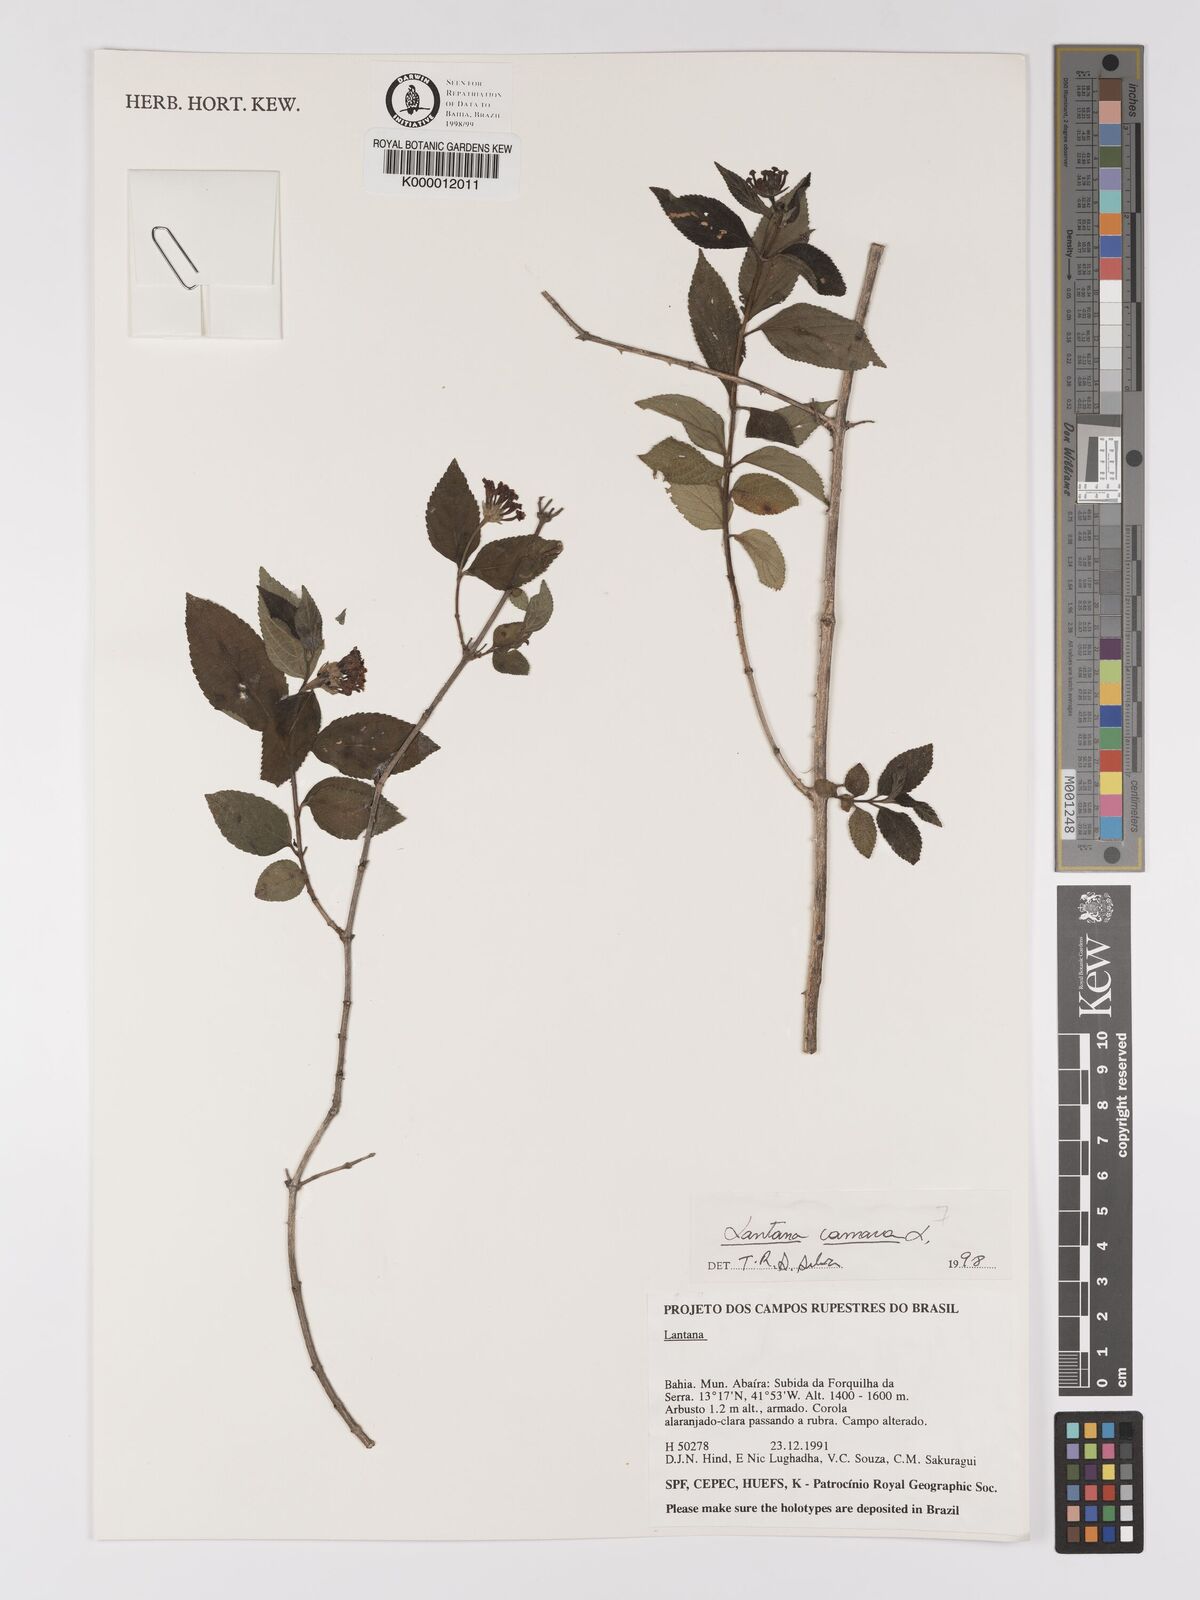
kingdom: Plantae
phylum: Tracheophyta
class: Magnoliopsida
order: Lamiales
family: Verbenaceae
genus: Lantana
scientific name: Lantana camara
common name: Lantana
